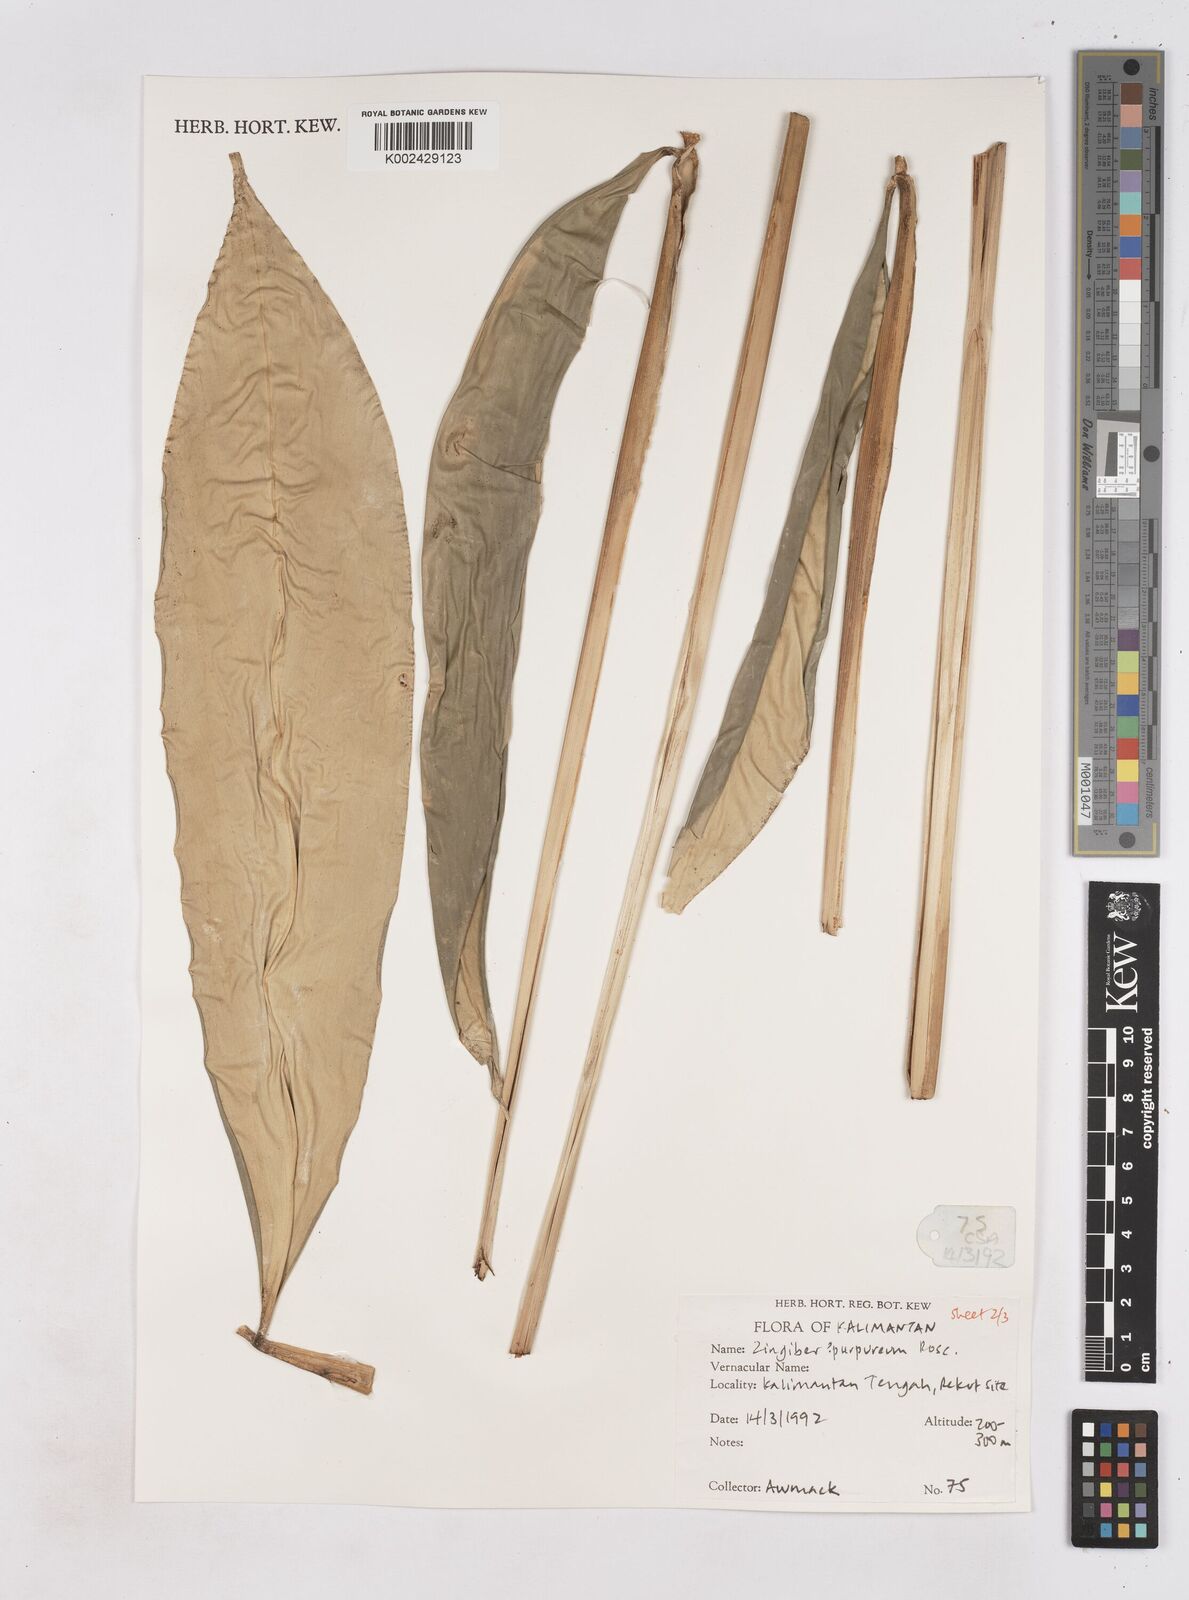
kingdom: Plantae
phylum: Tracheophyta
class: Liliopsida
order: Zingiberales
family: Zingiberaceae
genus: Zingiber
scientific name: Zingiber montanum
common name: Bengal ginger
